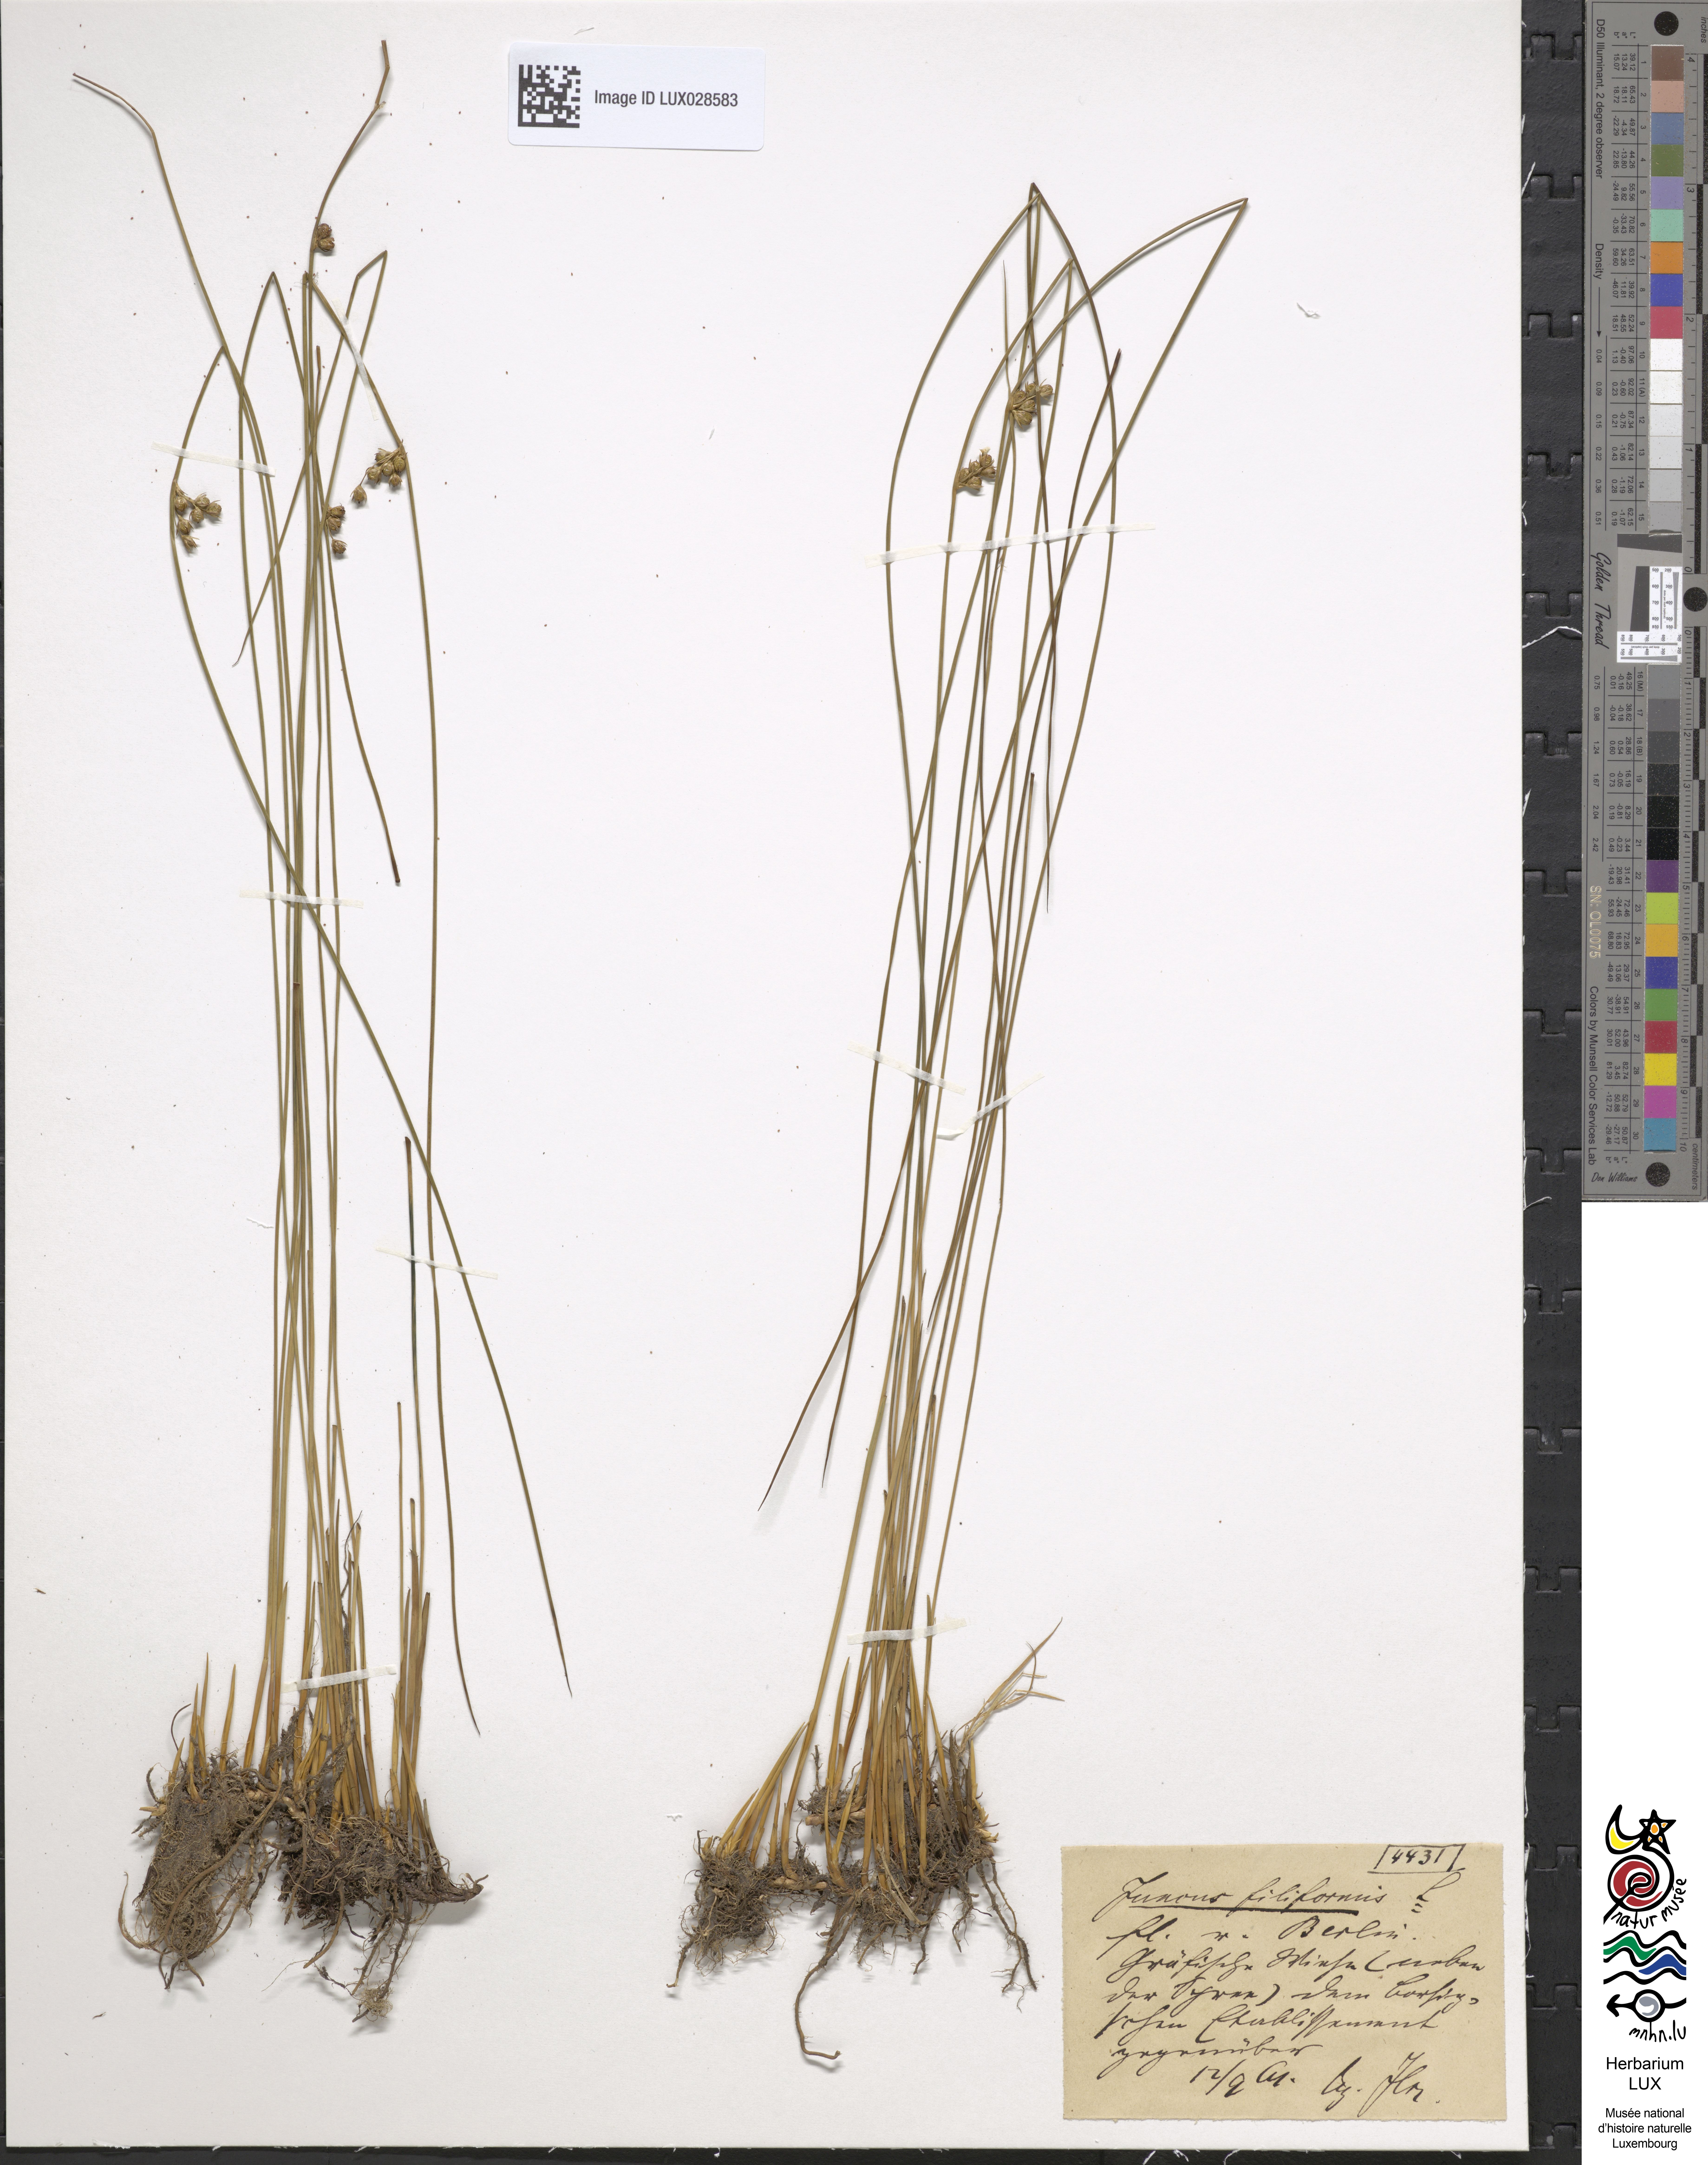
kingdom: Plantae
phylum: Tracheophyta
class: Liliopsida
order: Poales
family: Juncaceae
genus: Juncus
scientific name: Juncus filiformis
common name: Thread rush
